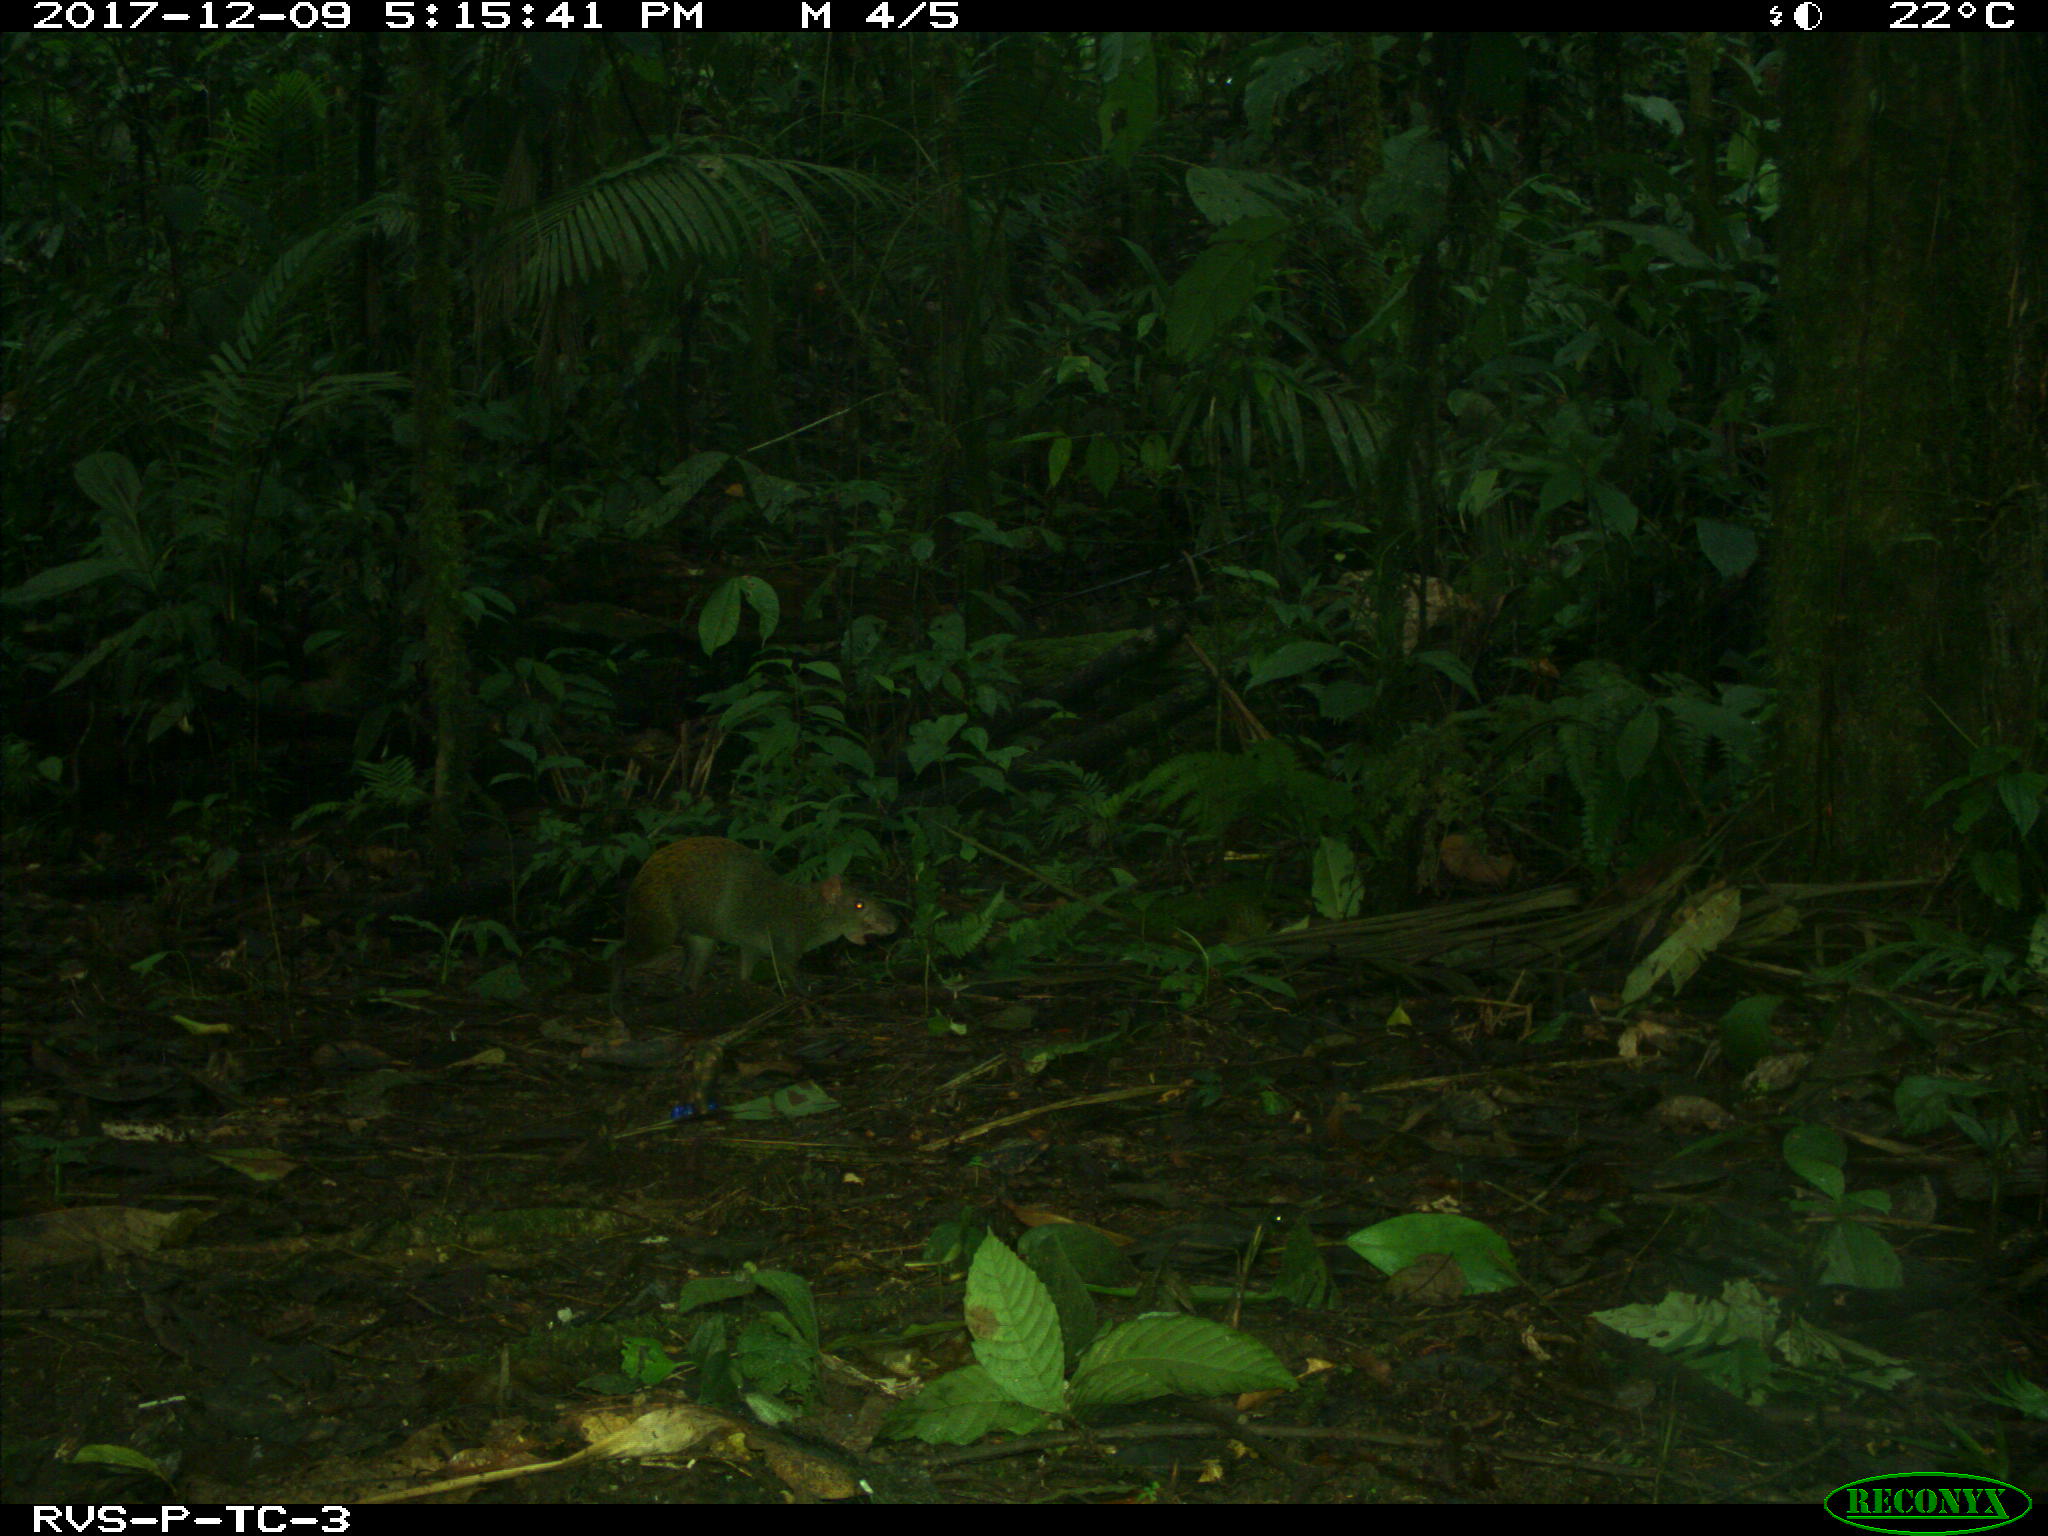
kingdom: Animalia
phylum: Chordata
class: Mammalia
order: Rodentia
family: Dasyproctidae
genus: Dasyprocta
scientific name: Dasyprocta punctata
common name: Central american agouti
